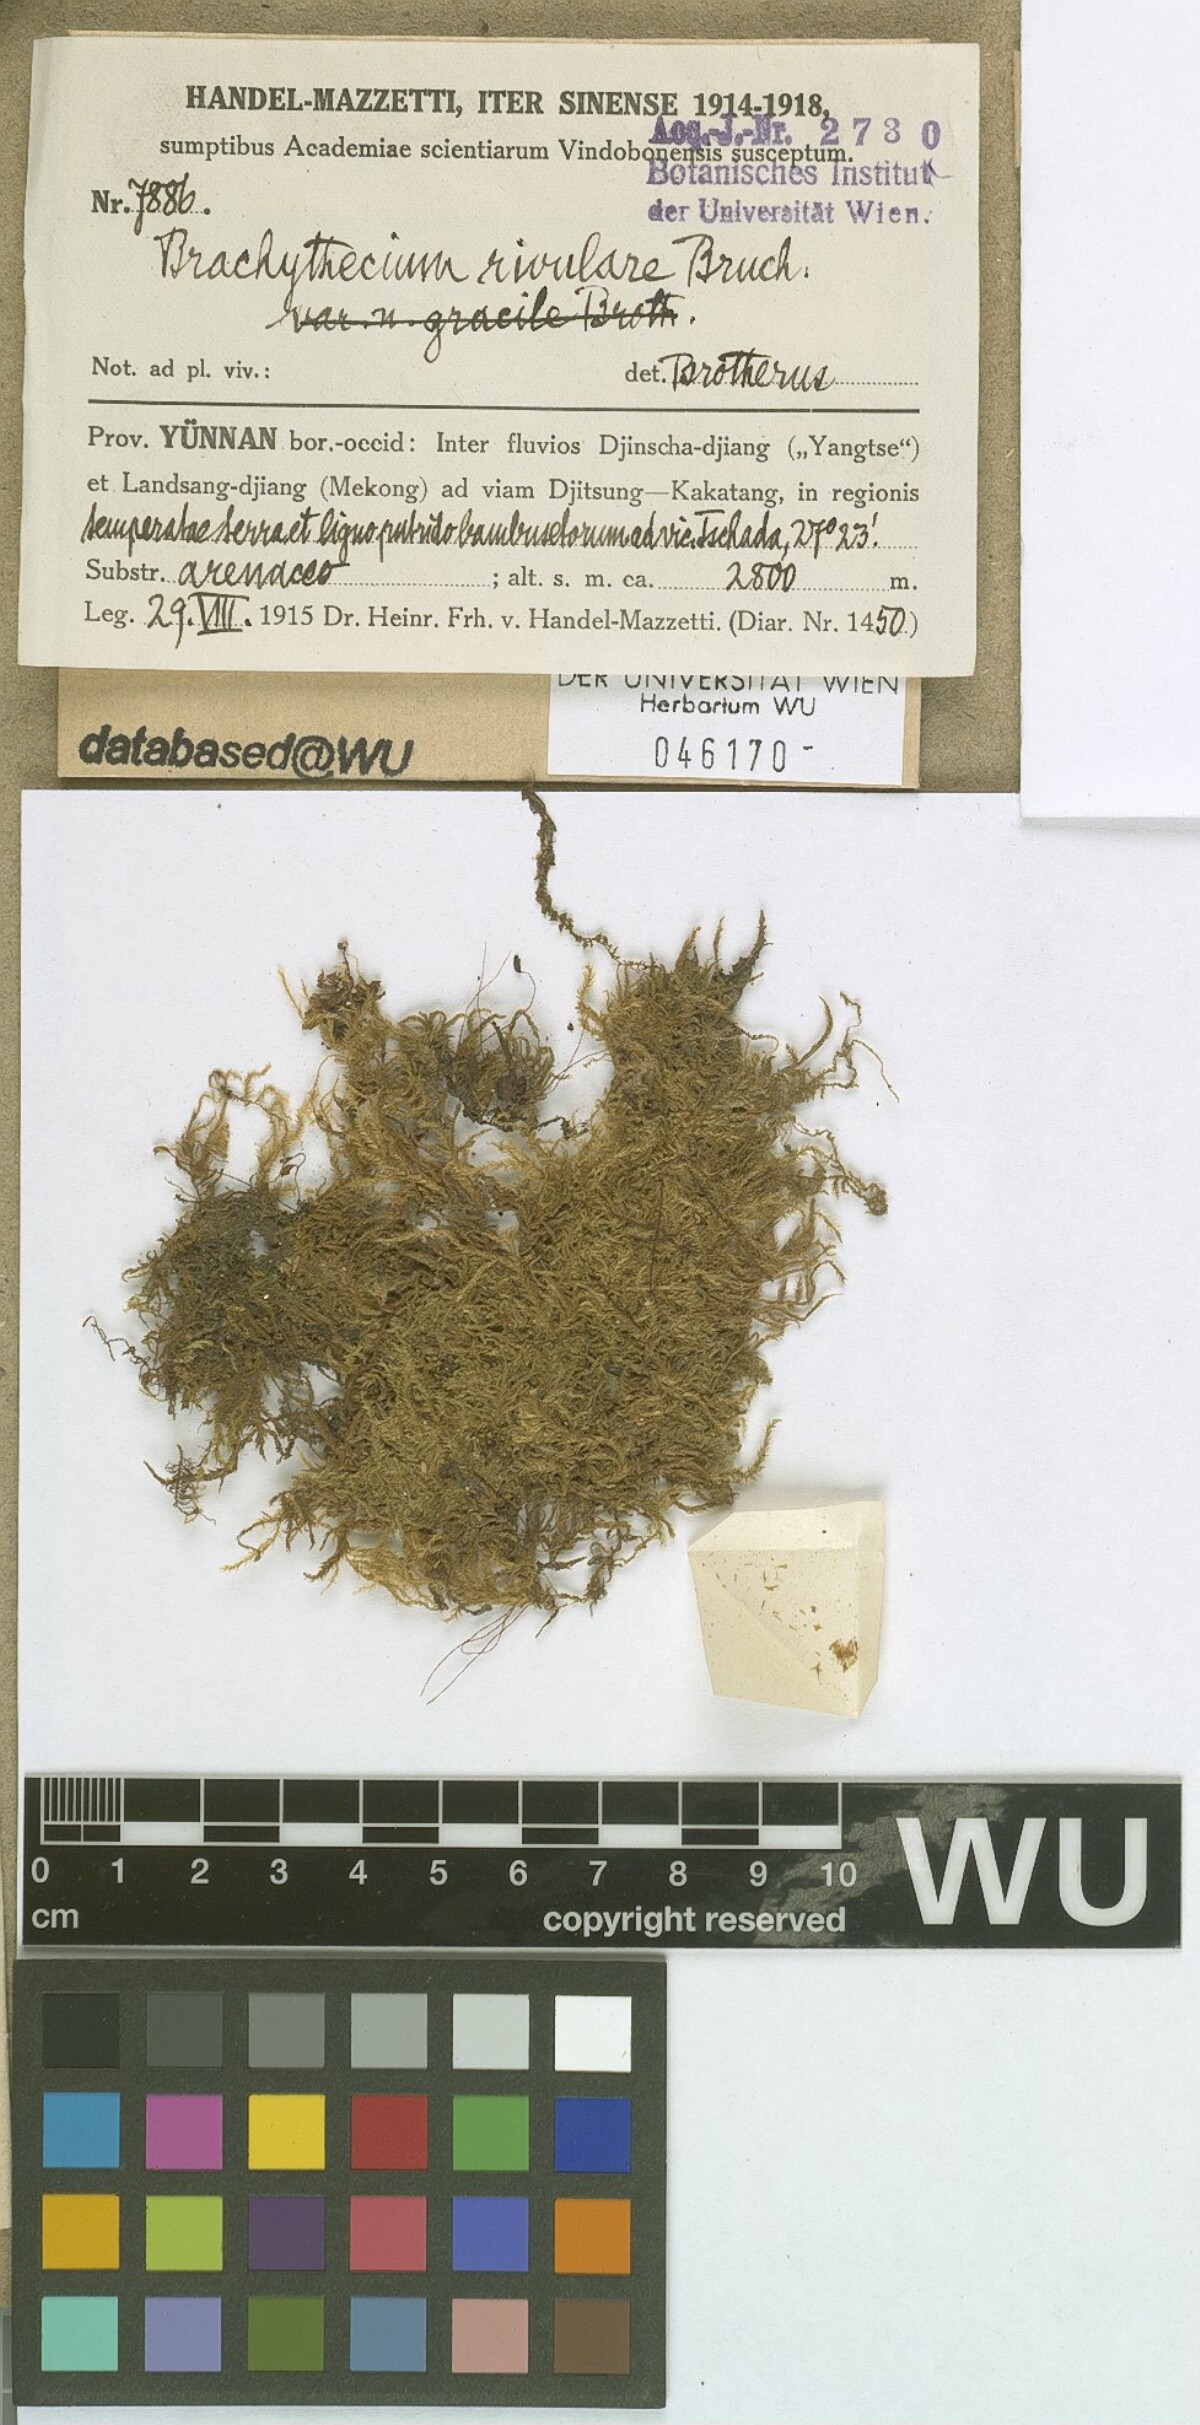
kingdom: Plantae
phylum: Bryophyta
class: Bryopsida
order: Hypnales
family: Brachytheciaceae
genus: Brachythecium
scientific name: Brachythecium rivulare
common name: River ragged moss
